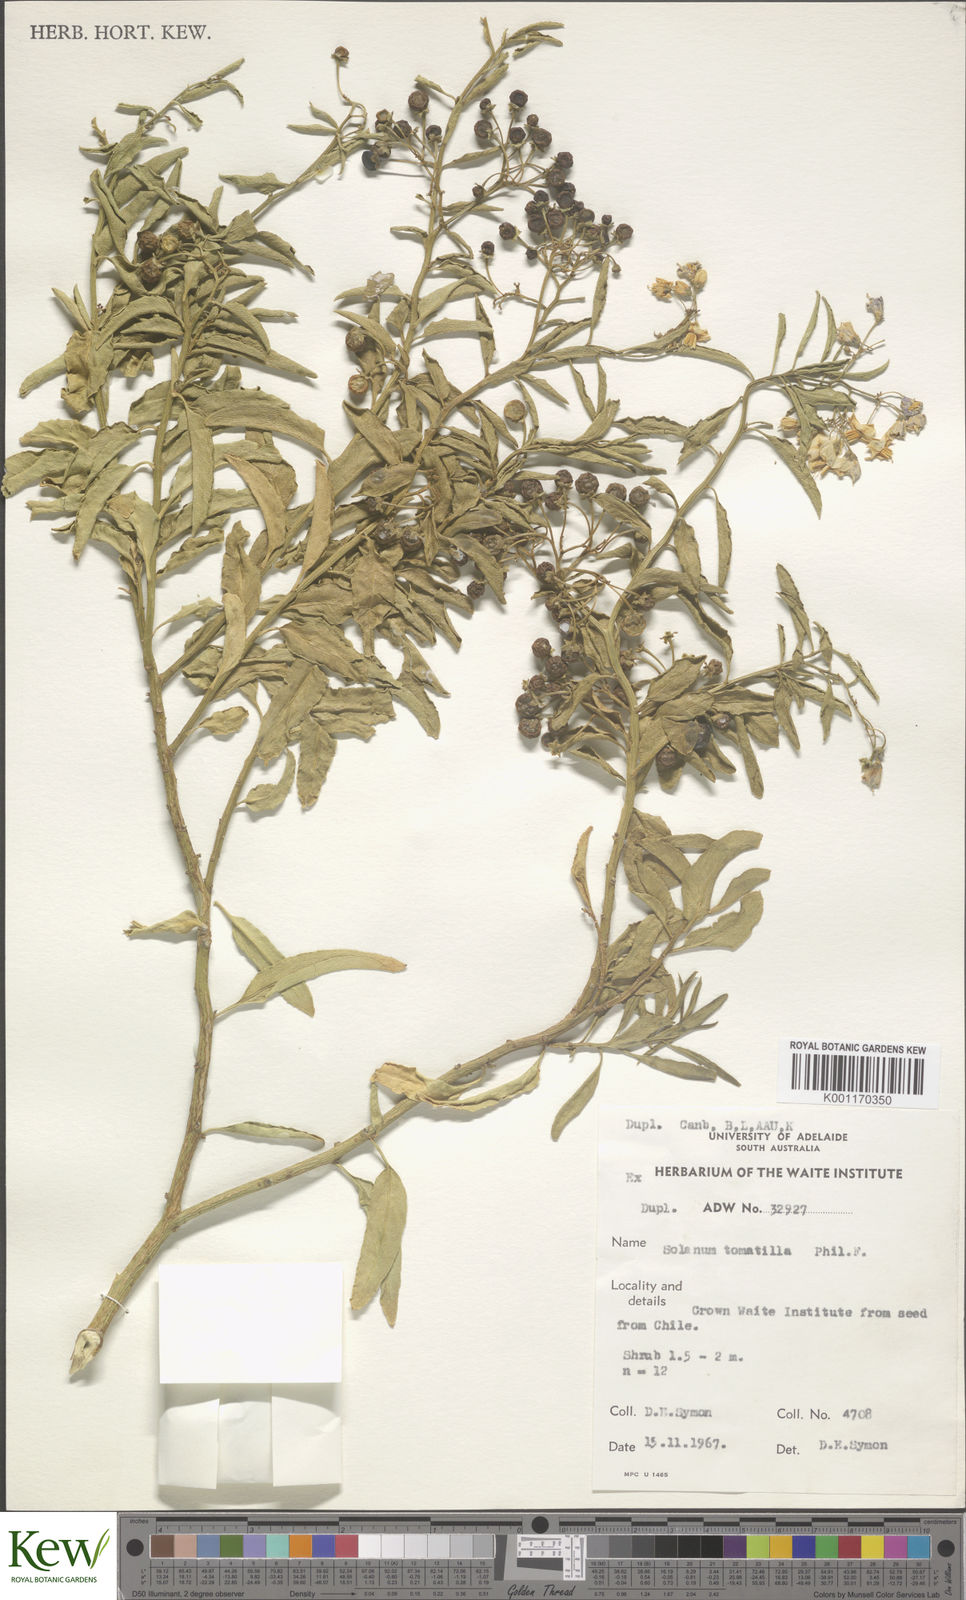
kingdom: Plantae
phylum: Tracheophyta
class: Magnoliopsida
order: Solanales
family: Solanaceae
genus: Solanum
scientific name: Solanum
